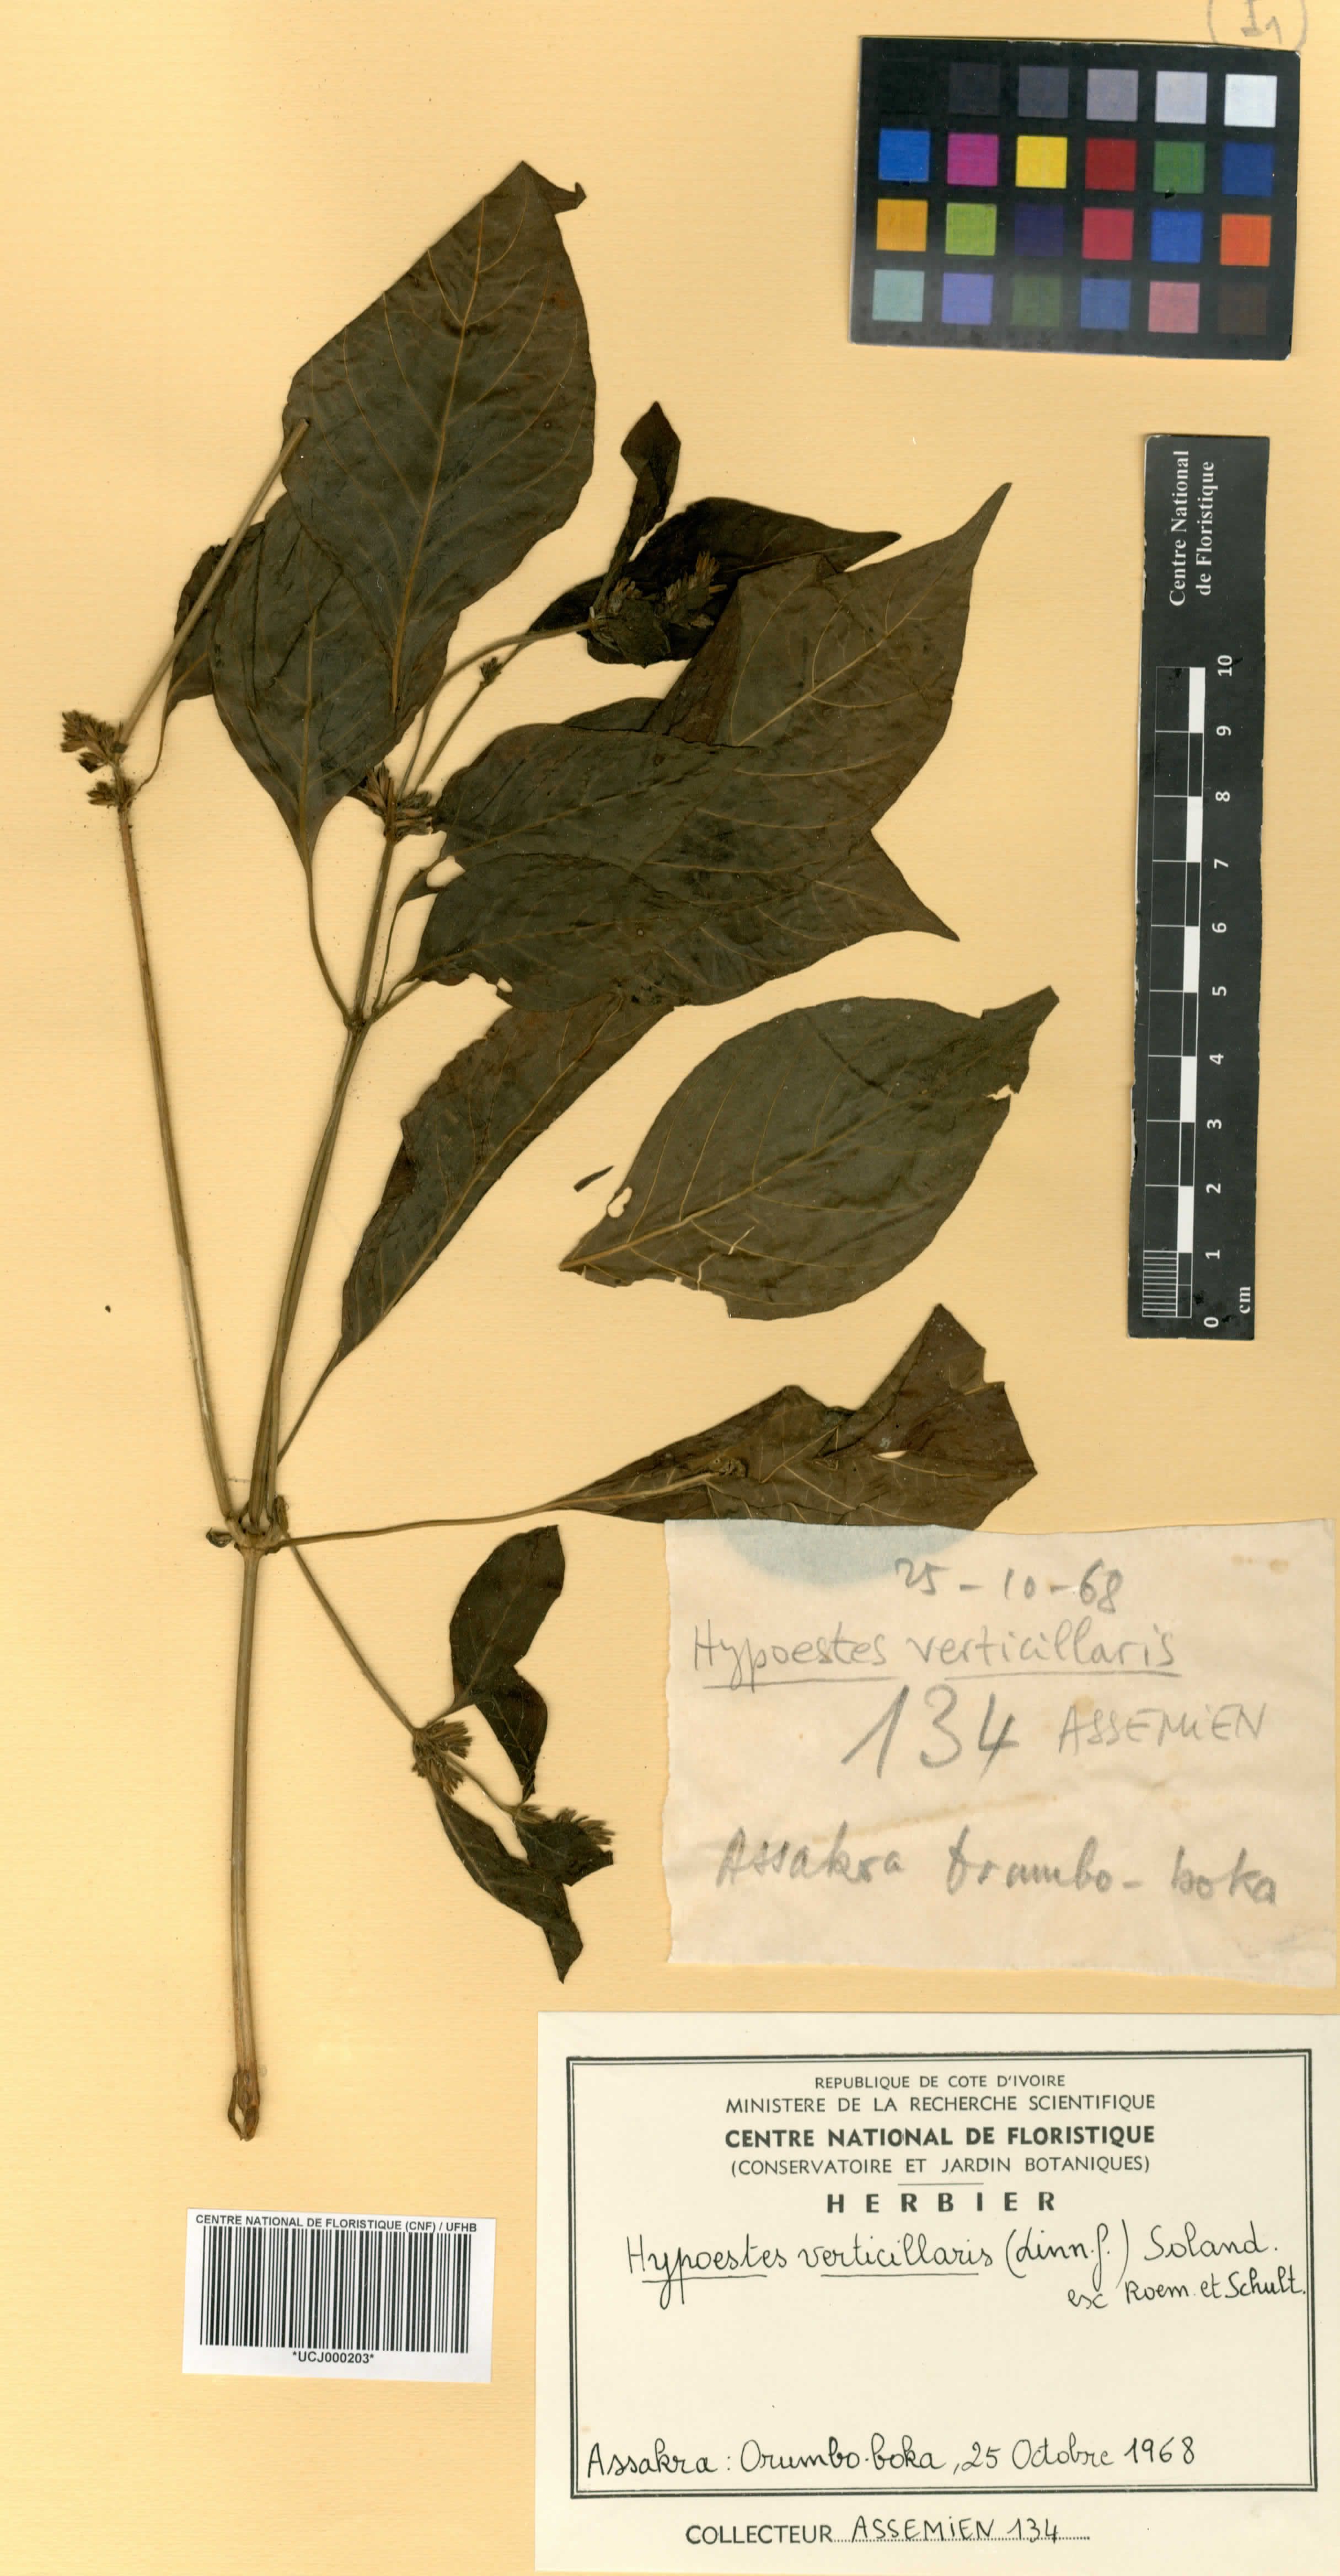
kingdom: Plantae
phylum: Tracheophyta
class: Magnoliopsida
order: Lamiales
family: Acanthaceae
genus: Hypoestes
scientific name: Hypoestes aristata
